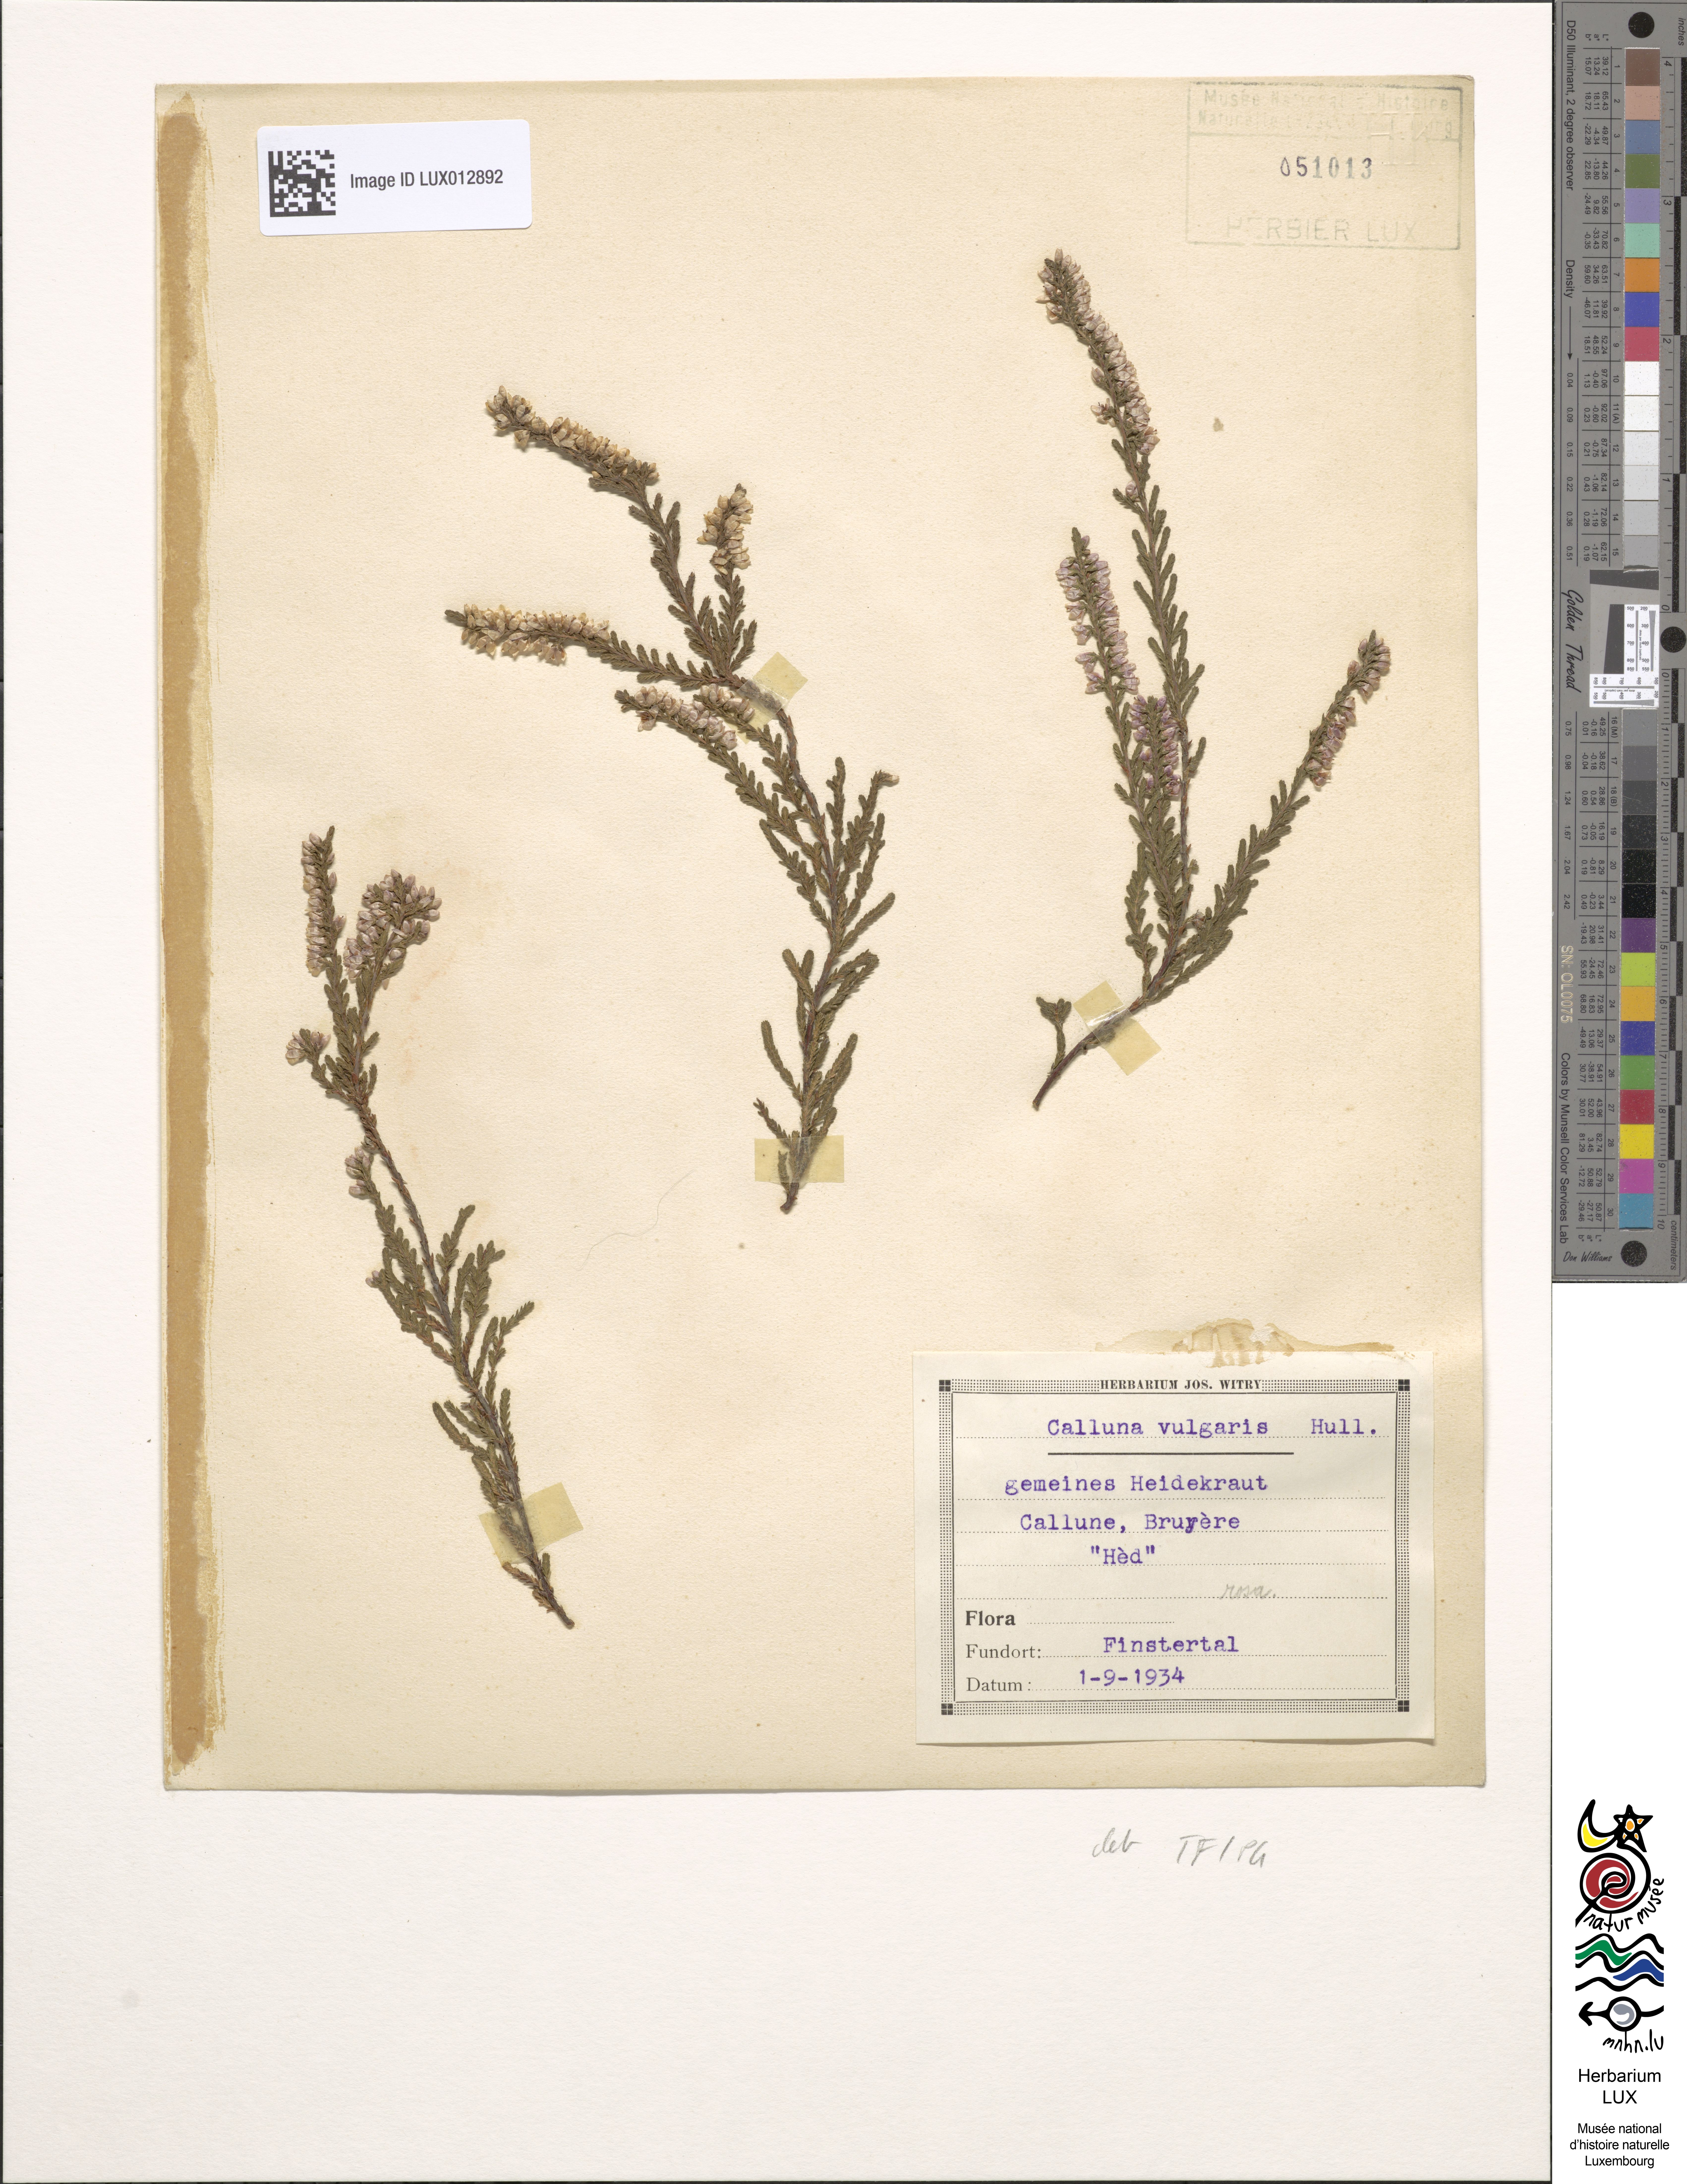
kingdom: Plantae
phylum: Tracheophyta
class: Magnoliopsida
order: Ericales
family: Ericaceae
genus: Calluna
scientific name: Calluna vulgaris
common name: Heather
